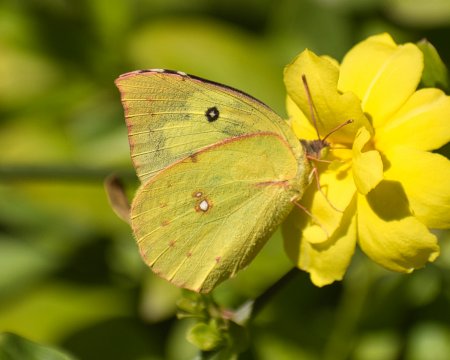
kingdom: Animalia
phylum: Arthropoda
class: Insecta
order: Lepidoptera
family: Pieridae
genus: Zerene
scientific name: Zerene cesonia
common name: Southern Dogface
